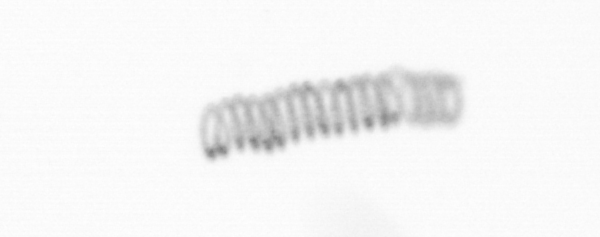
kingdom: Chromista
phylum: Ochrophyta
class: Bacillariophyceae
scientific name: Bacillariophyceae
